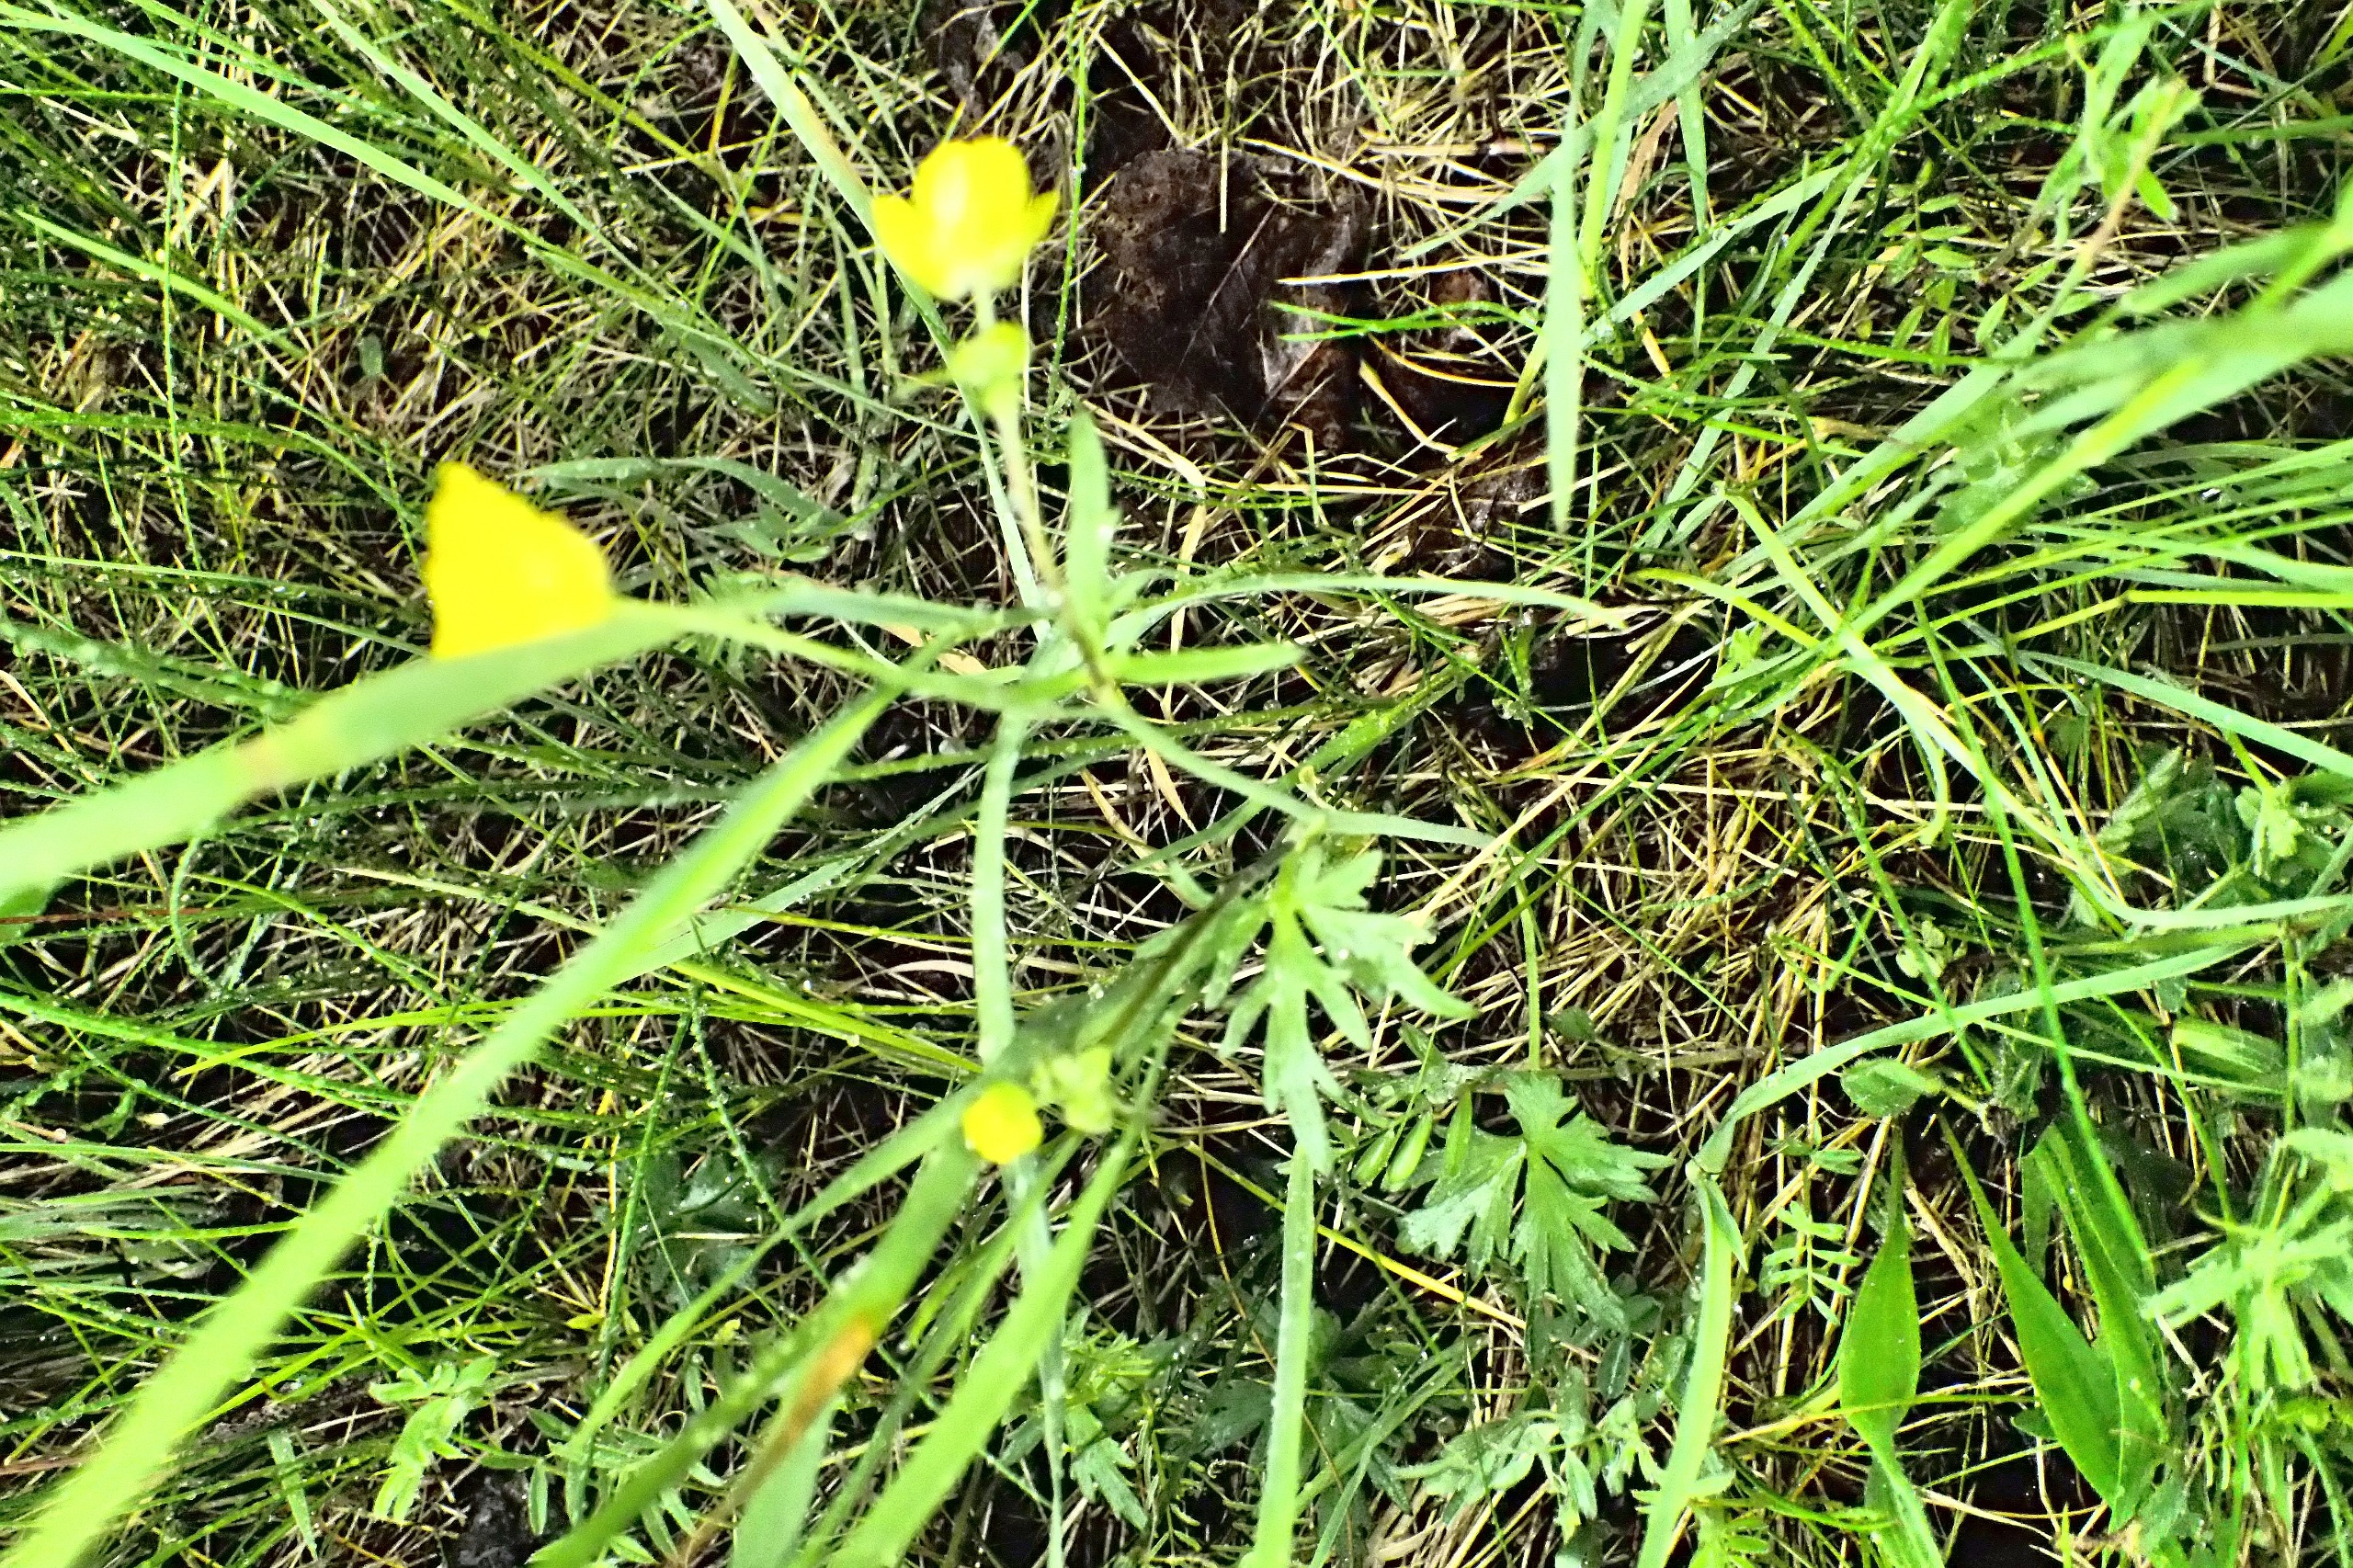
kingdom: Plantae
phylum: Tracheophyta
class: Magnoliopsida
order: Ranunculales
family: Ranunculaceae
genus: Ranunculus
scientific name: Ranunculus acris
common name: Bidende ranunkel
